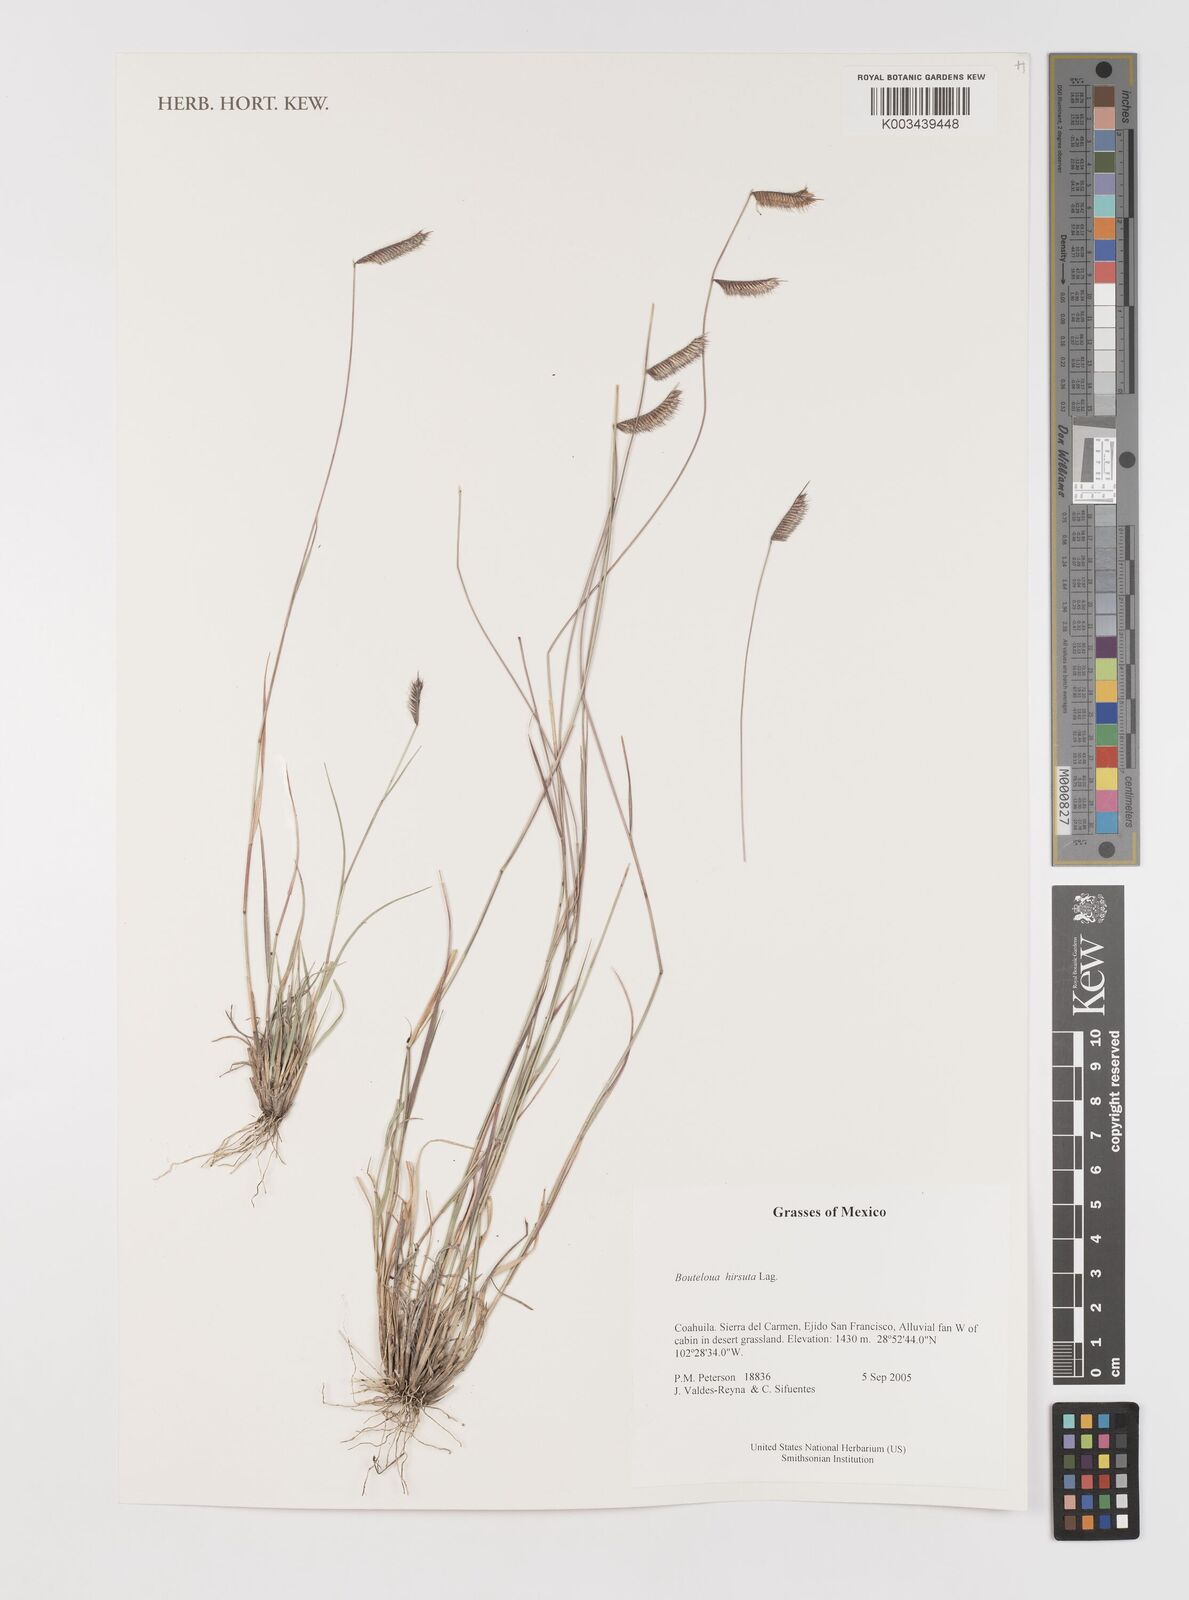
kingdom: Plantae
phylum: Tracheophyta
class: Liliopsida
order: Poales
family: Poaceae
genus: Bouteloua
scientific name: Bouteloua hirsuta
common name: Hairy grama
